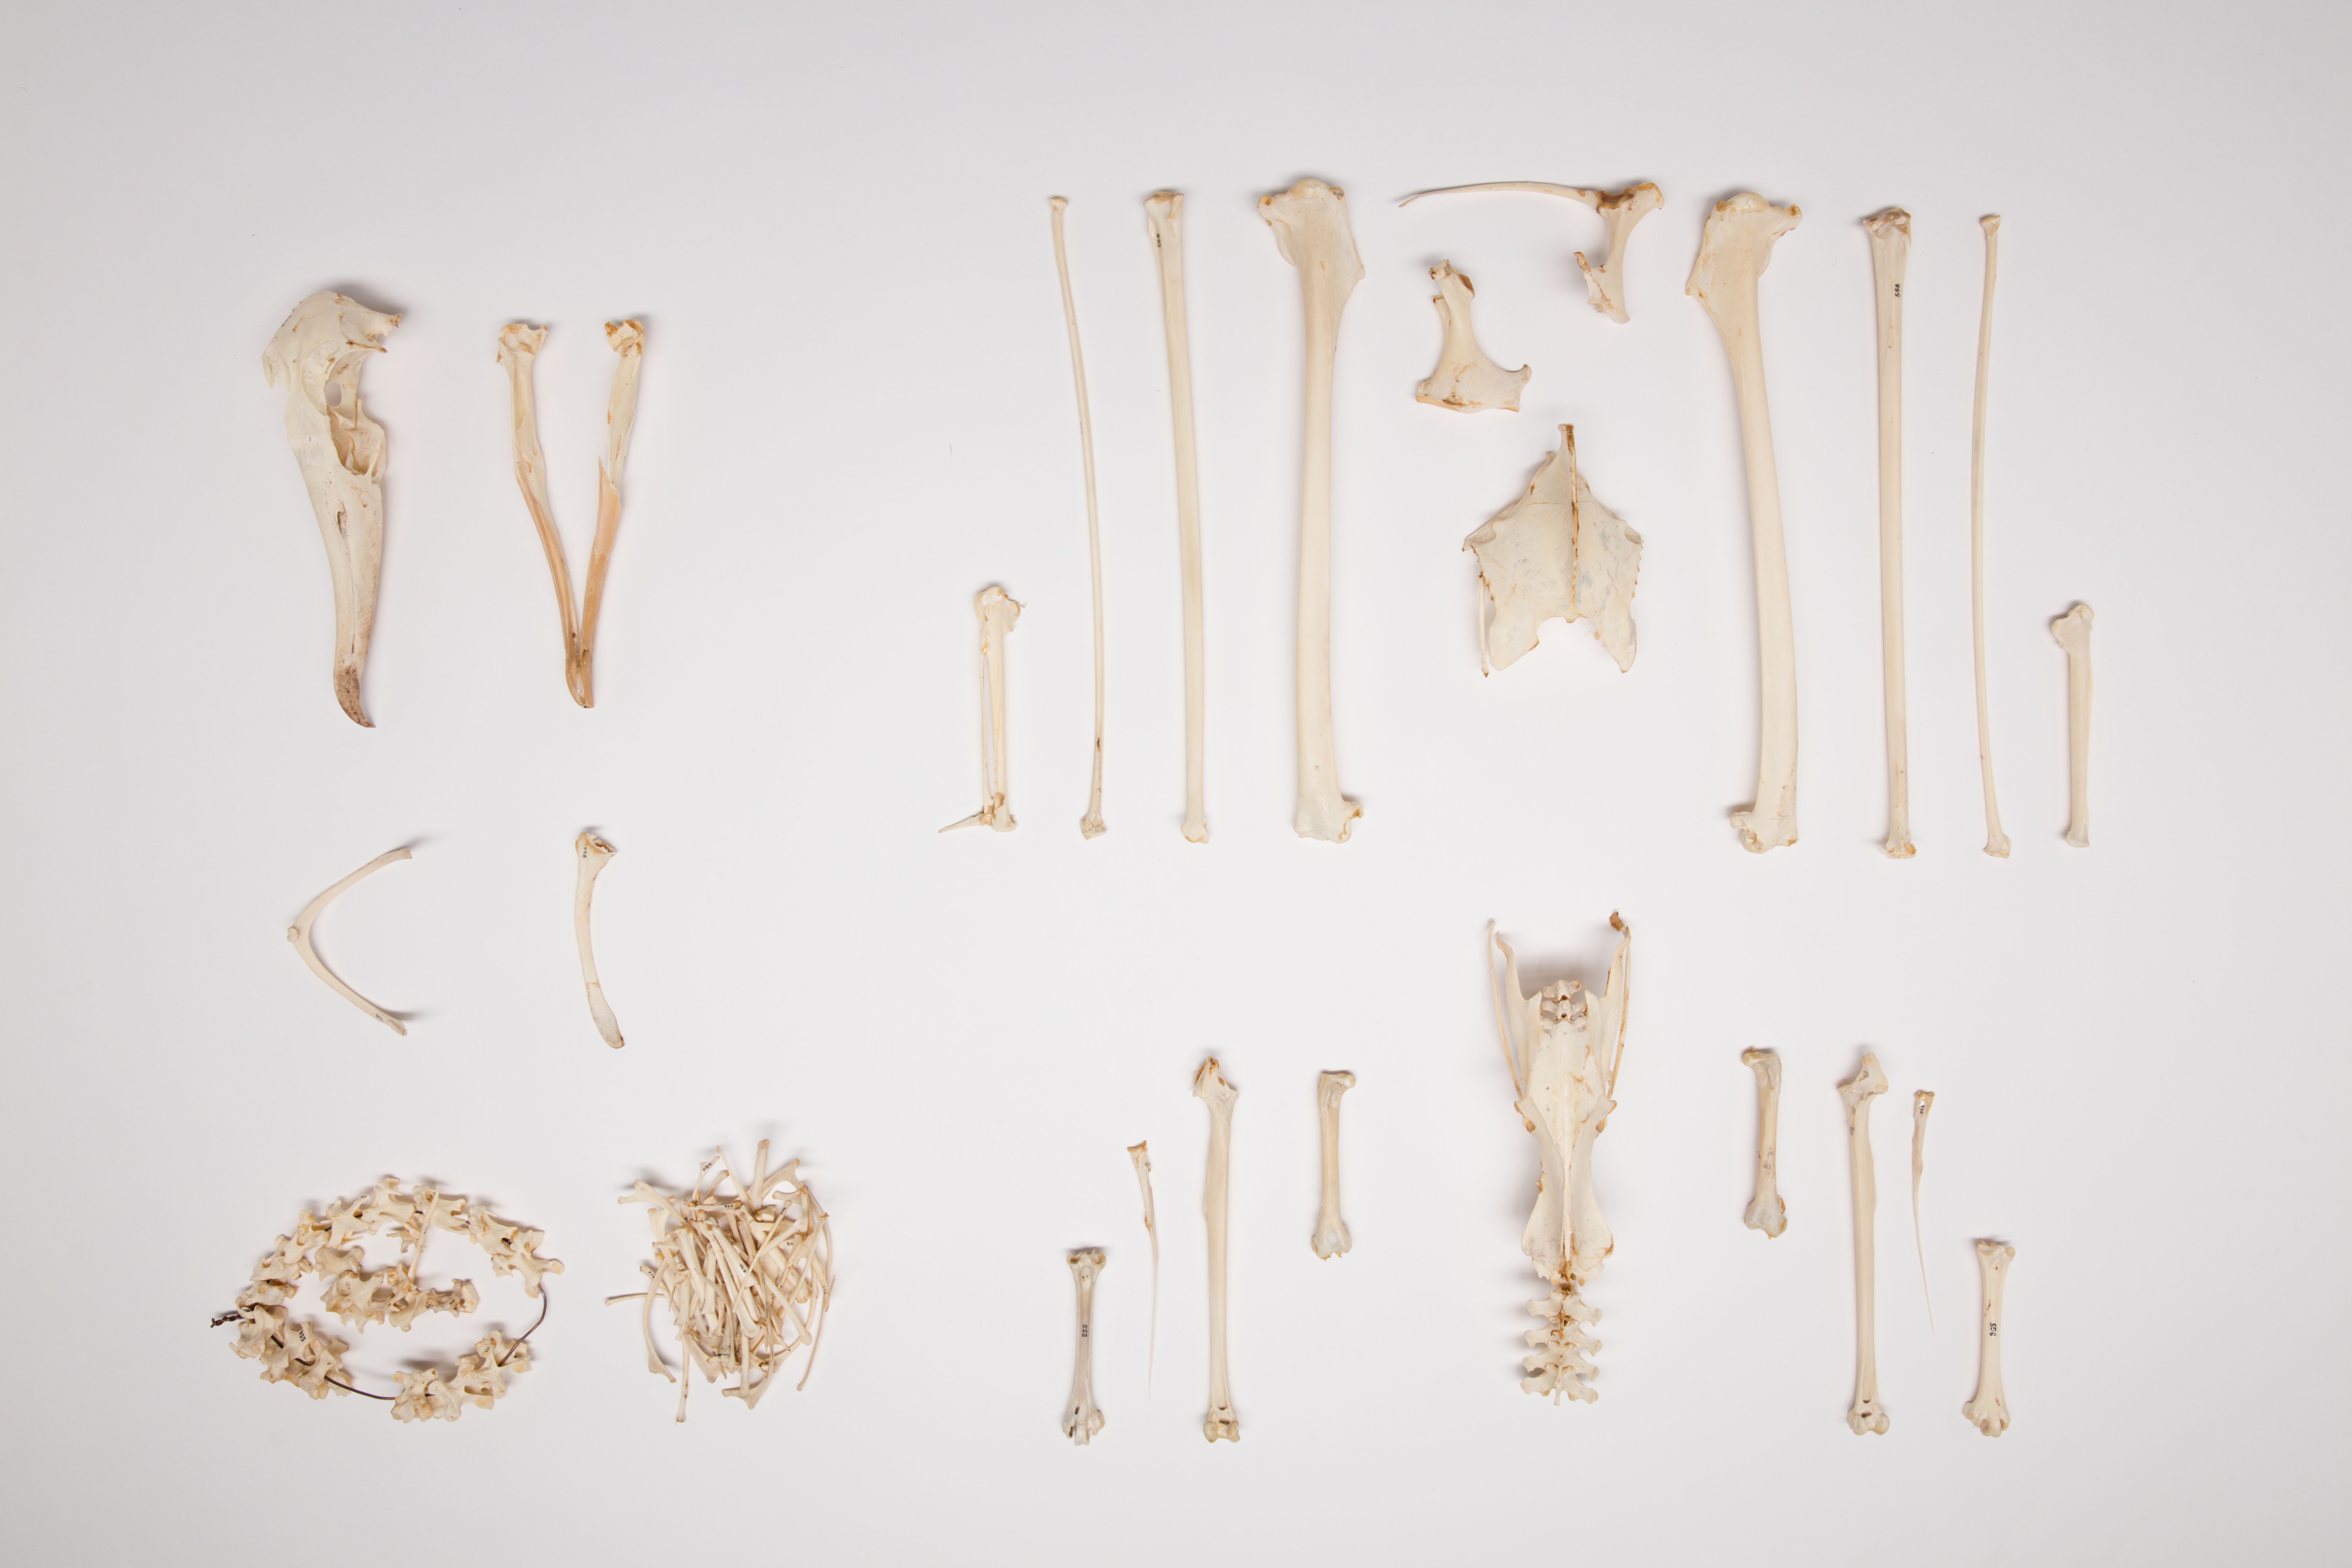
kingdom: Animalia
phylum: Chordata
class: Aves
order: Procellariiformes
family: Diomedeidae
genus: Thalassarche
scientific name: Thalassarche cauta
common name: Shy albatross
